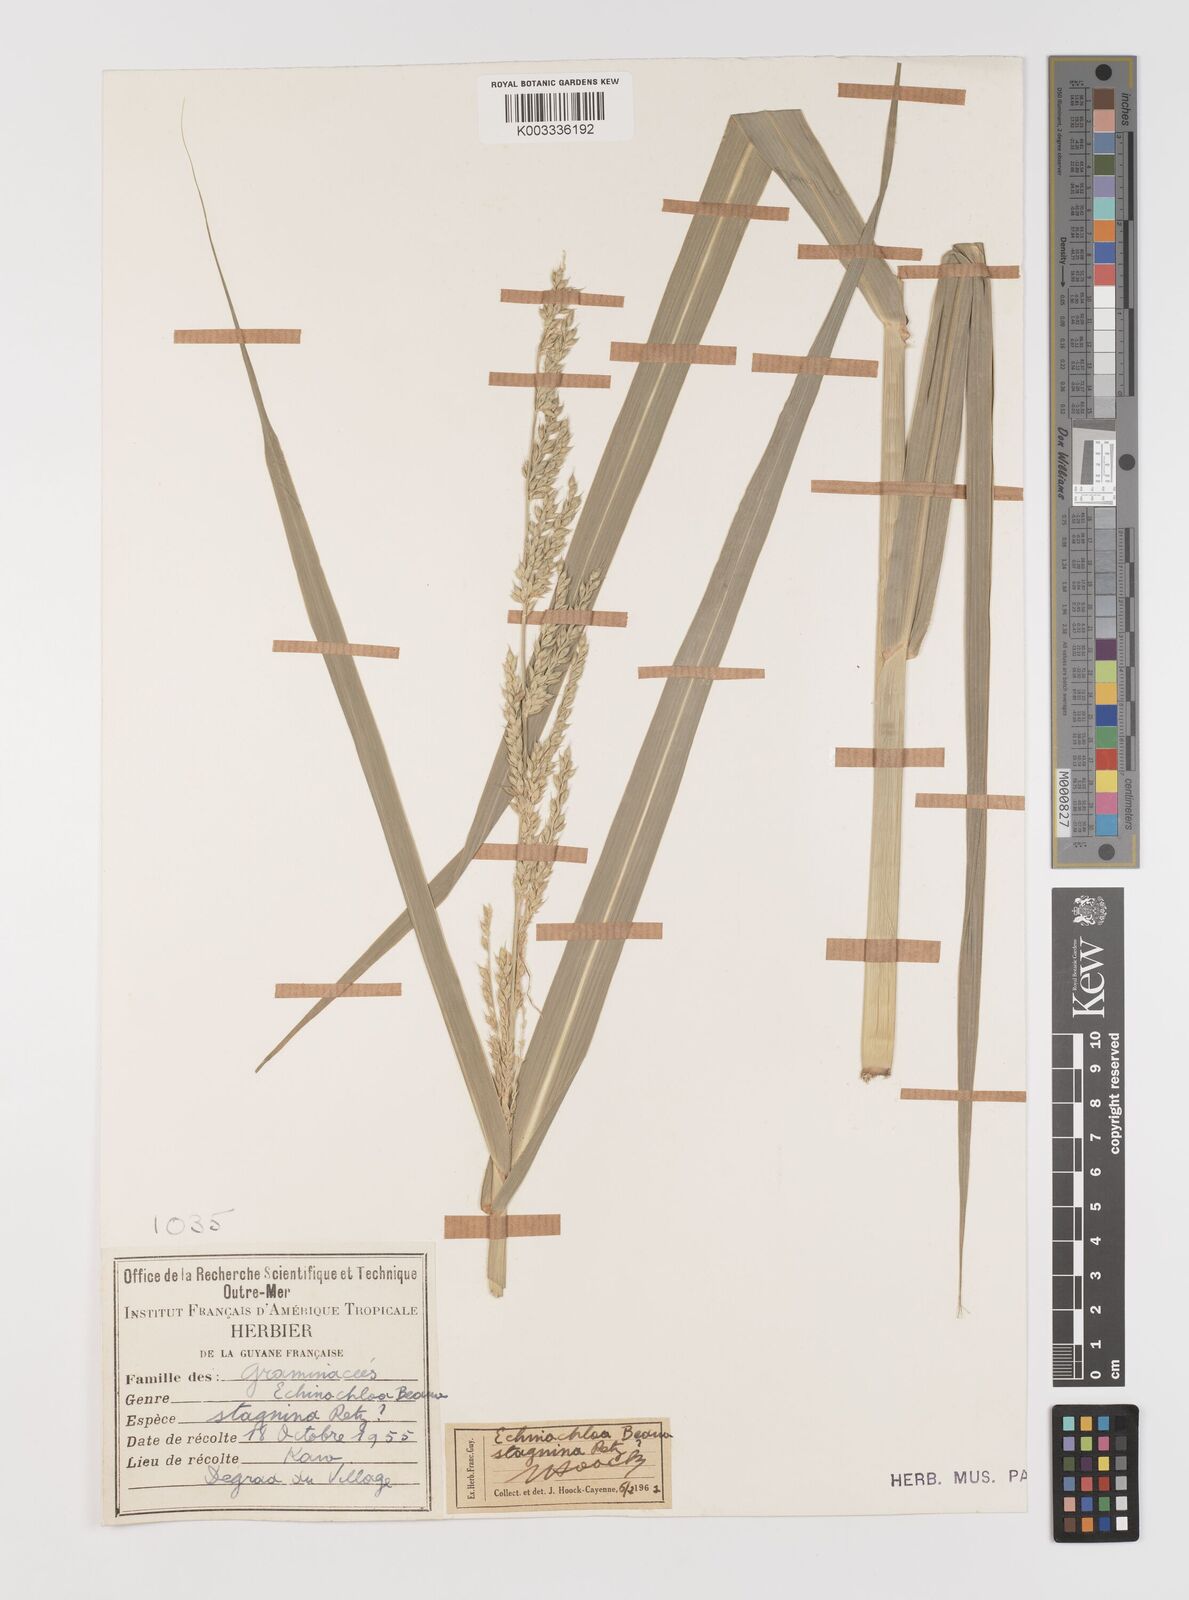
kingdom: Plantae
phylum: Tracheophyta
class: Liliopsida
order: Poales
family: Poaceae
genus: Echinochloa
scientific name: Echinochloa polystachya
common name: Creeping river grass
